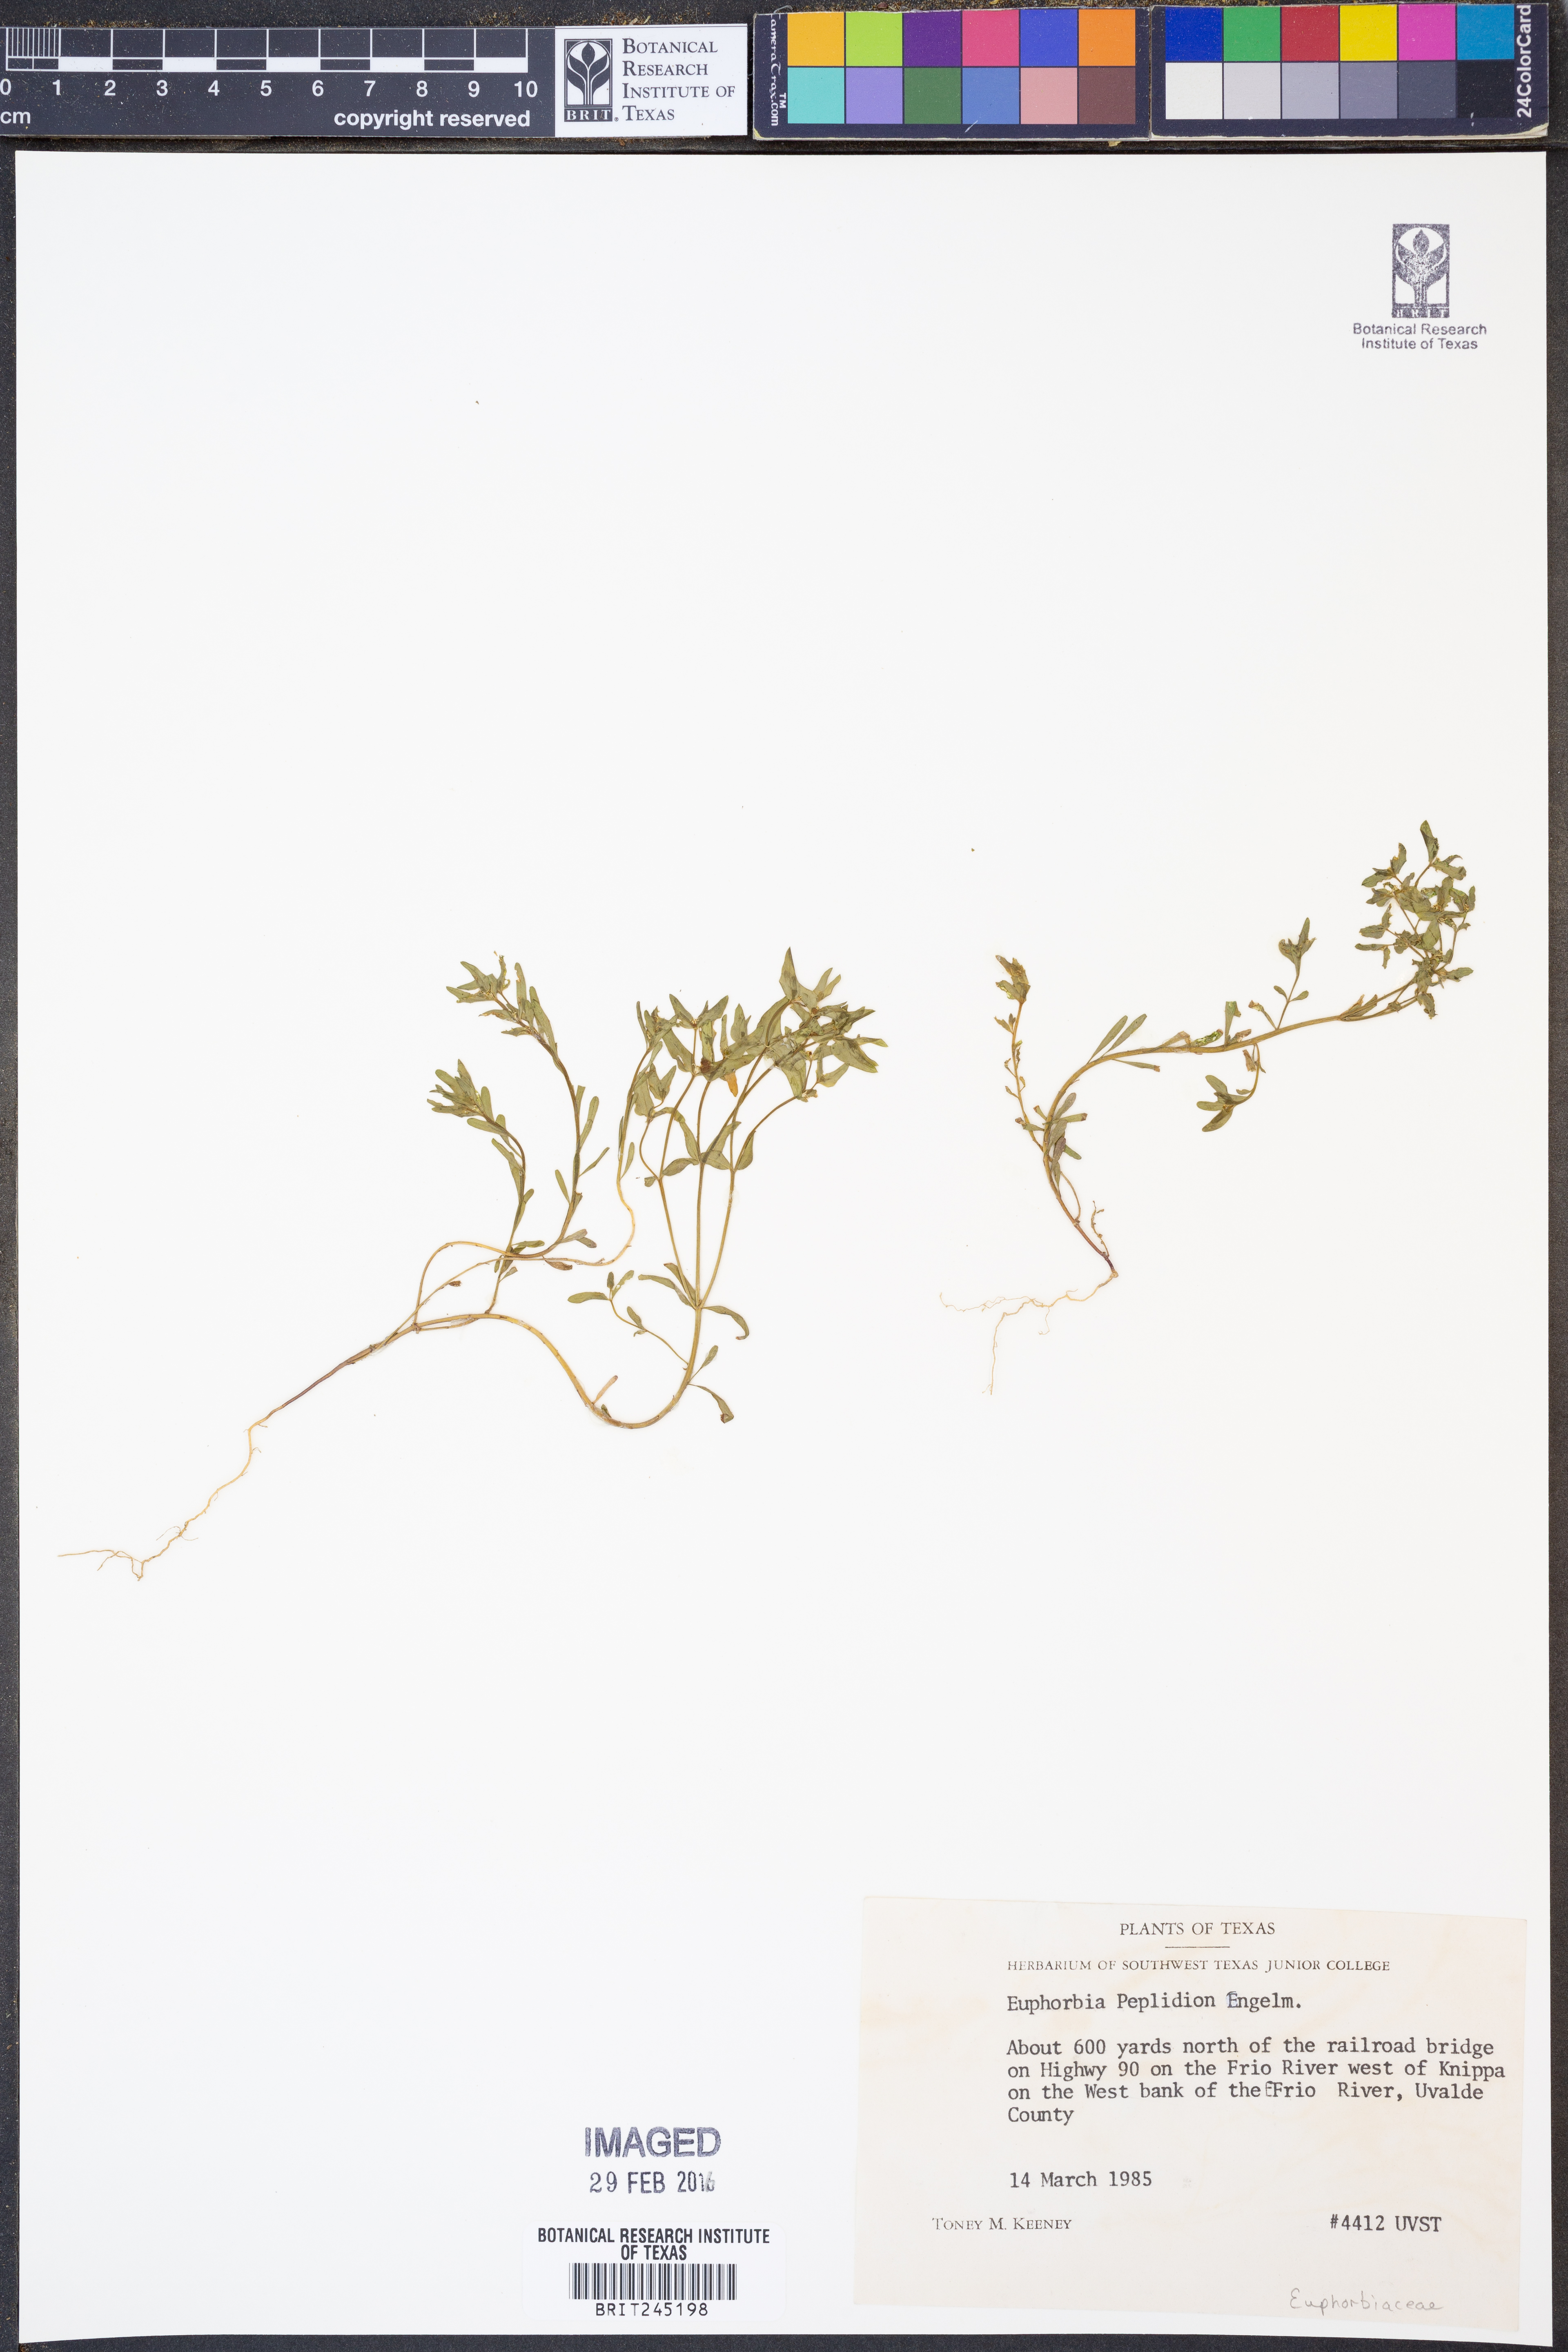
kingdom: Plantae
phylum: Tracheophyta
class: Magnoliopsida
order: Malpighiales
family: Euphorbiaceae
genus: Euphorbia
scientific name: Euphorbia peplidion
